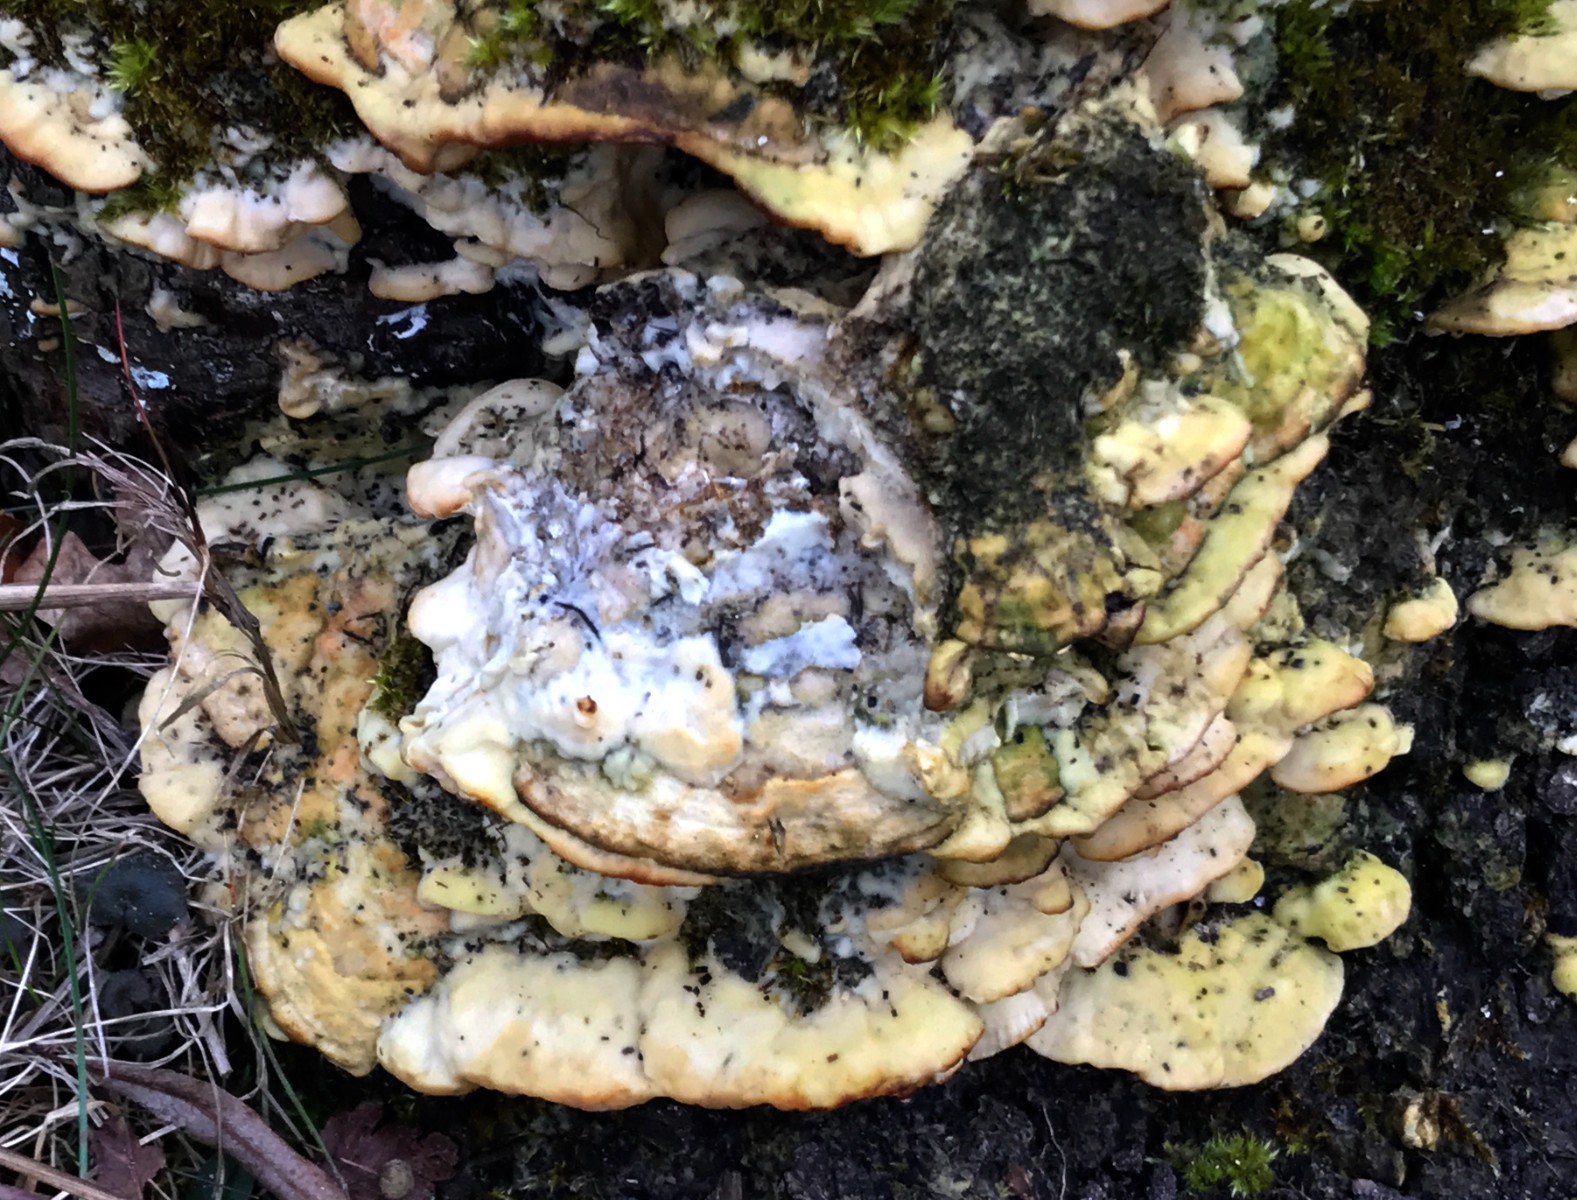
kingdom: Fungi
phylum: Basidiomycota
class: Agaricomycetes
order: Hymenochaetales
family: Oxyporaceae
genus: Oxyporus
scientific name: Oxyporus populinus
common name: sammenvokset trylleporesvamp
